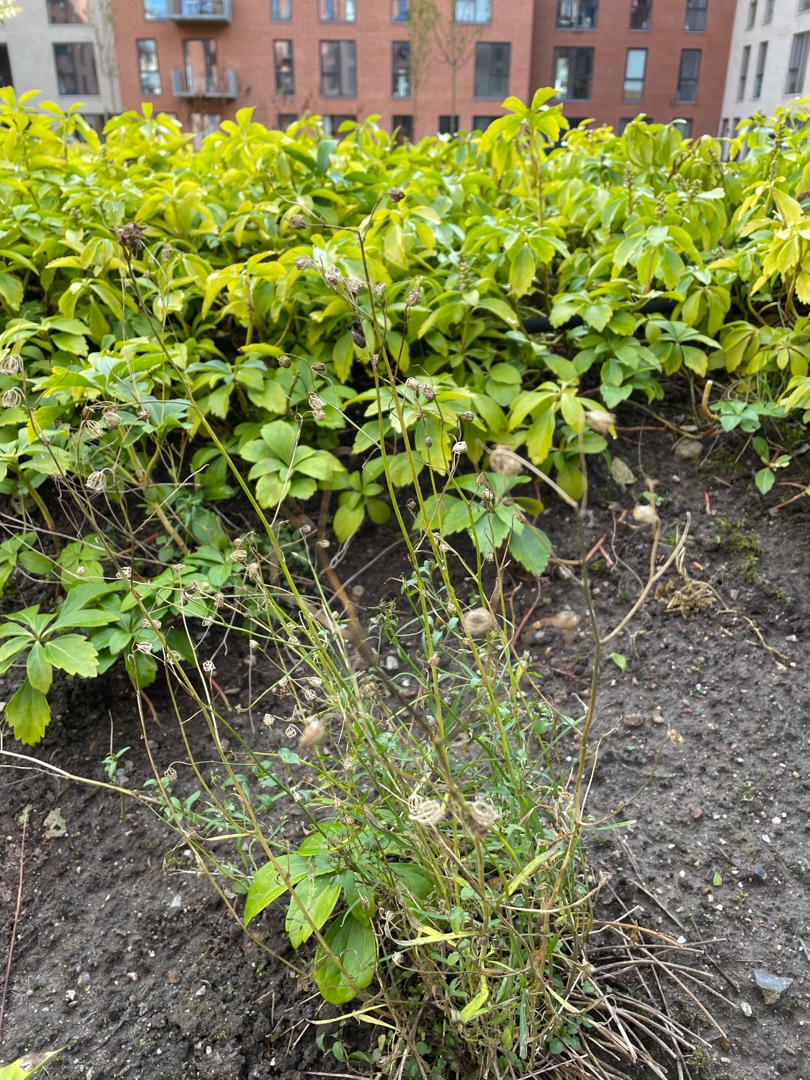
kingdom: Plantae
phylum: Tracheophyta
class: Magnoliopsida
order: Asterales
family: Campanulaceae
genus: Campanula
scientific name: Campanula
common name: Klokkeslægten
